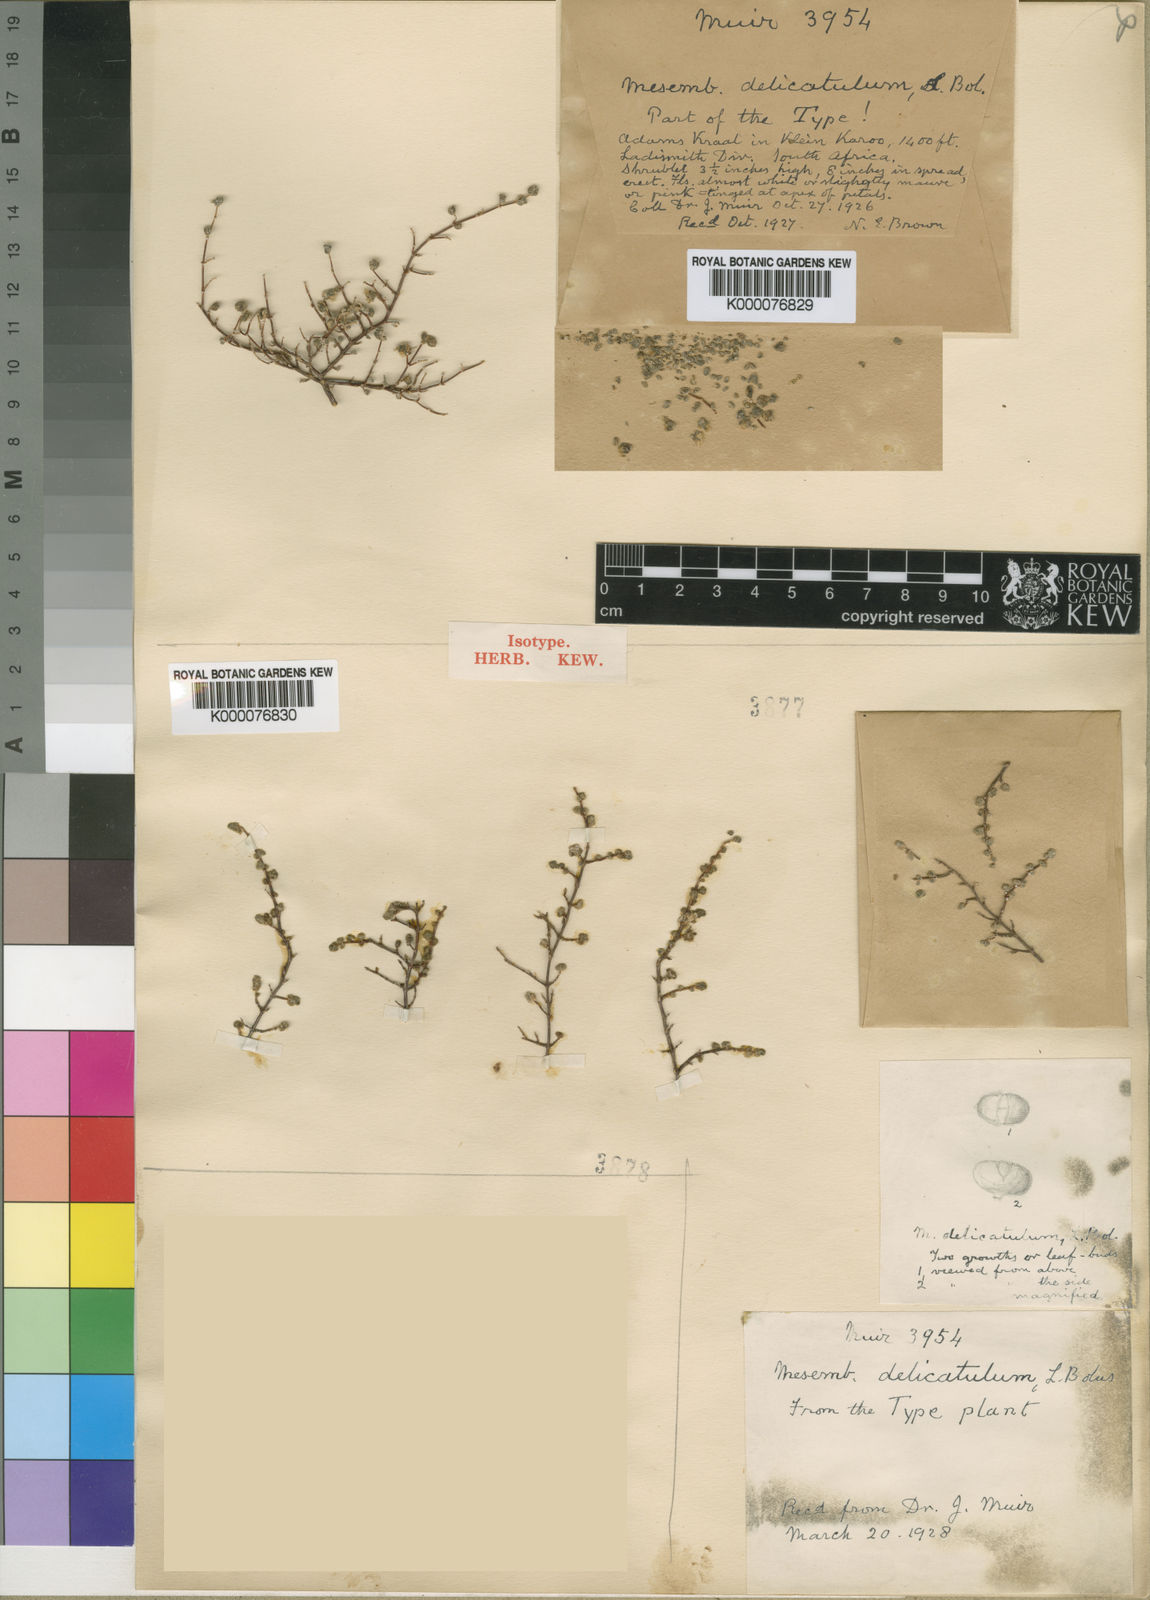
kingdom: Plantae
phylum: Tracheophyta
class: Magnoliopsida
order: Caryophyllales
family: Aizoaceae
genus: Drosanthemum
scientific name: Drosanthemum delicatulum
